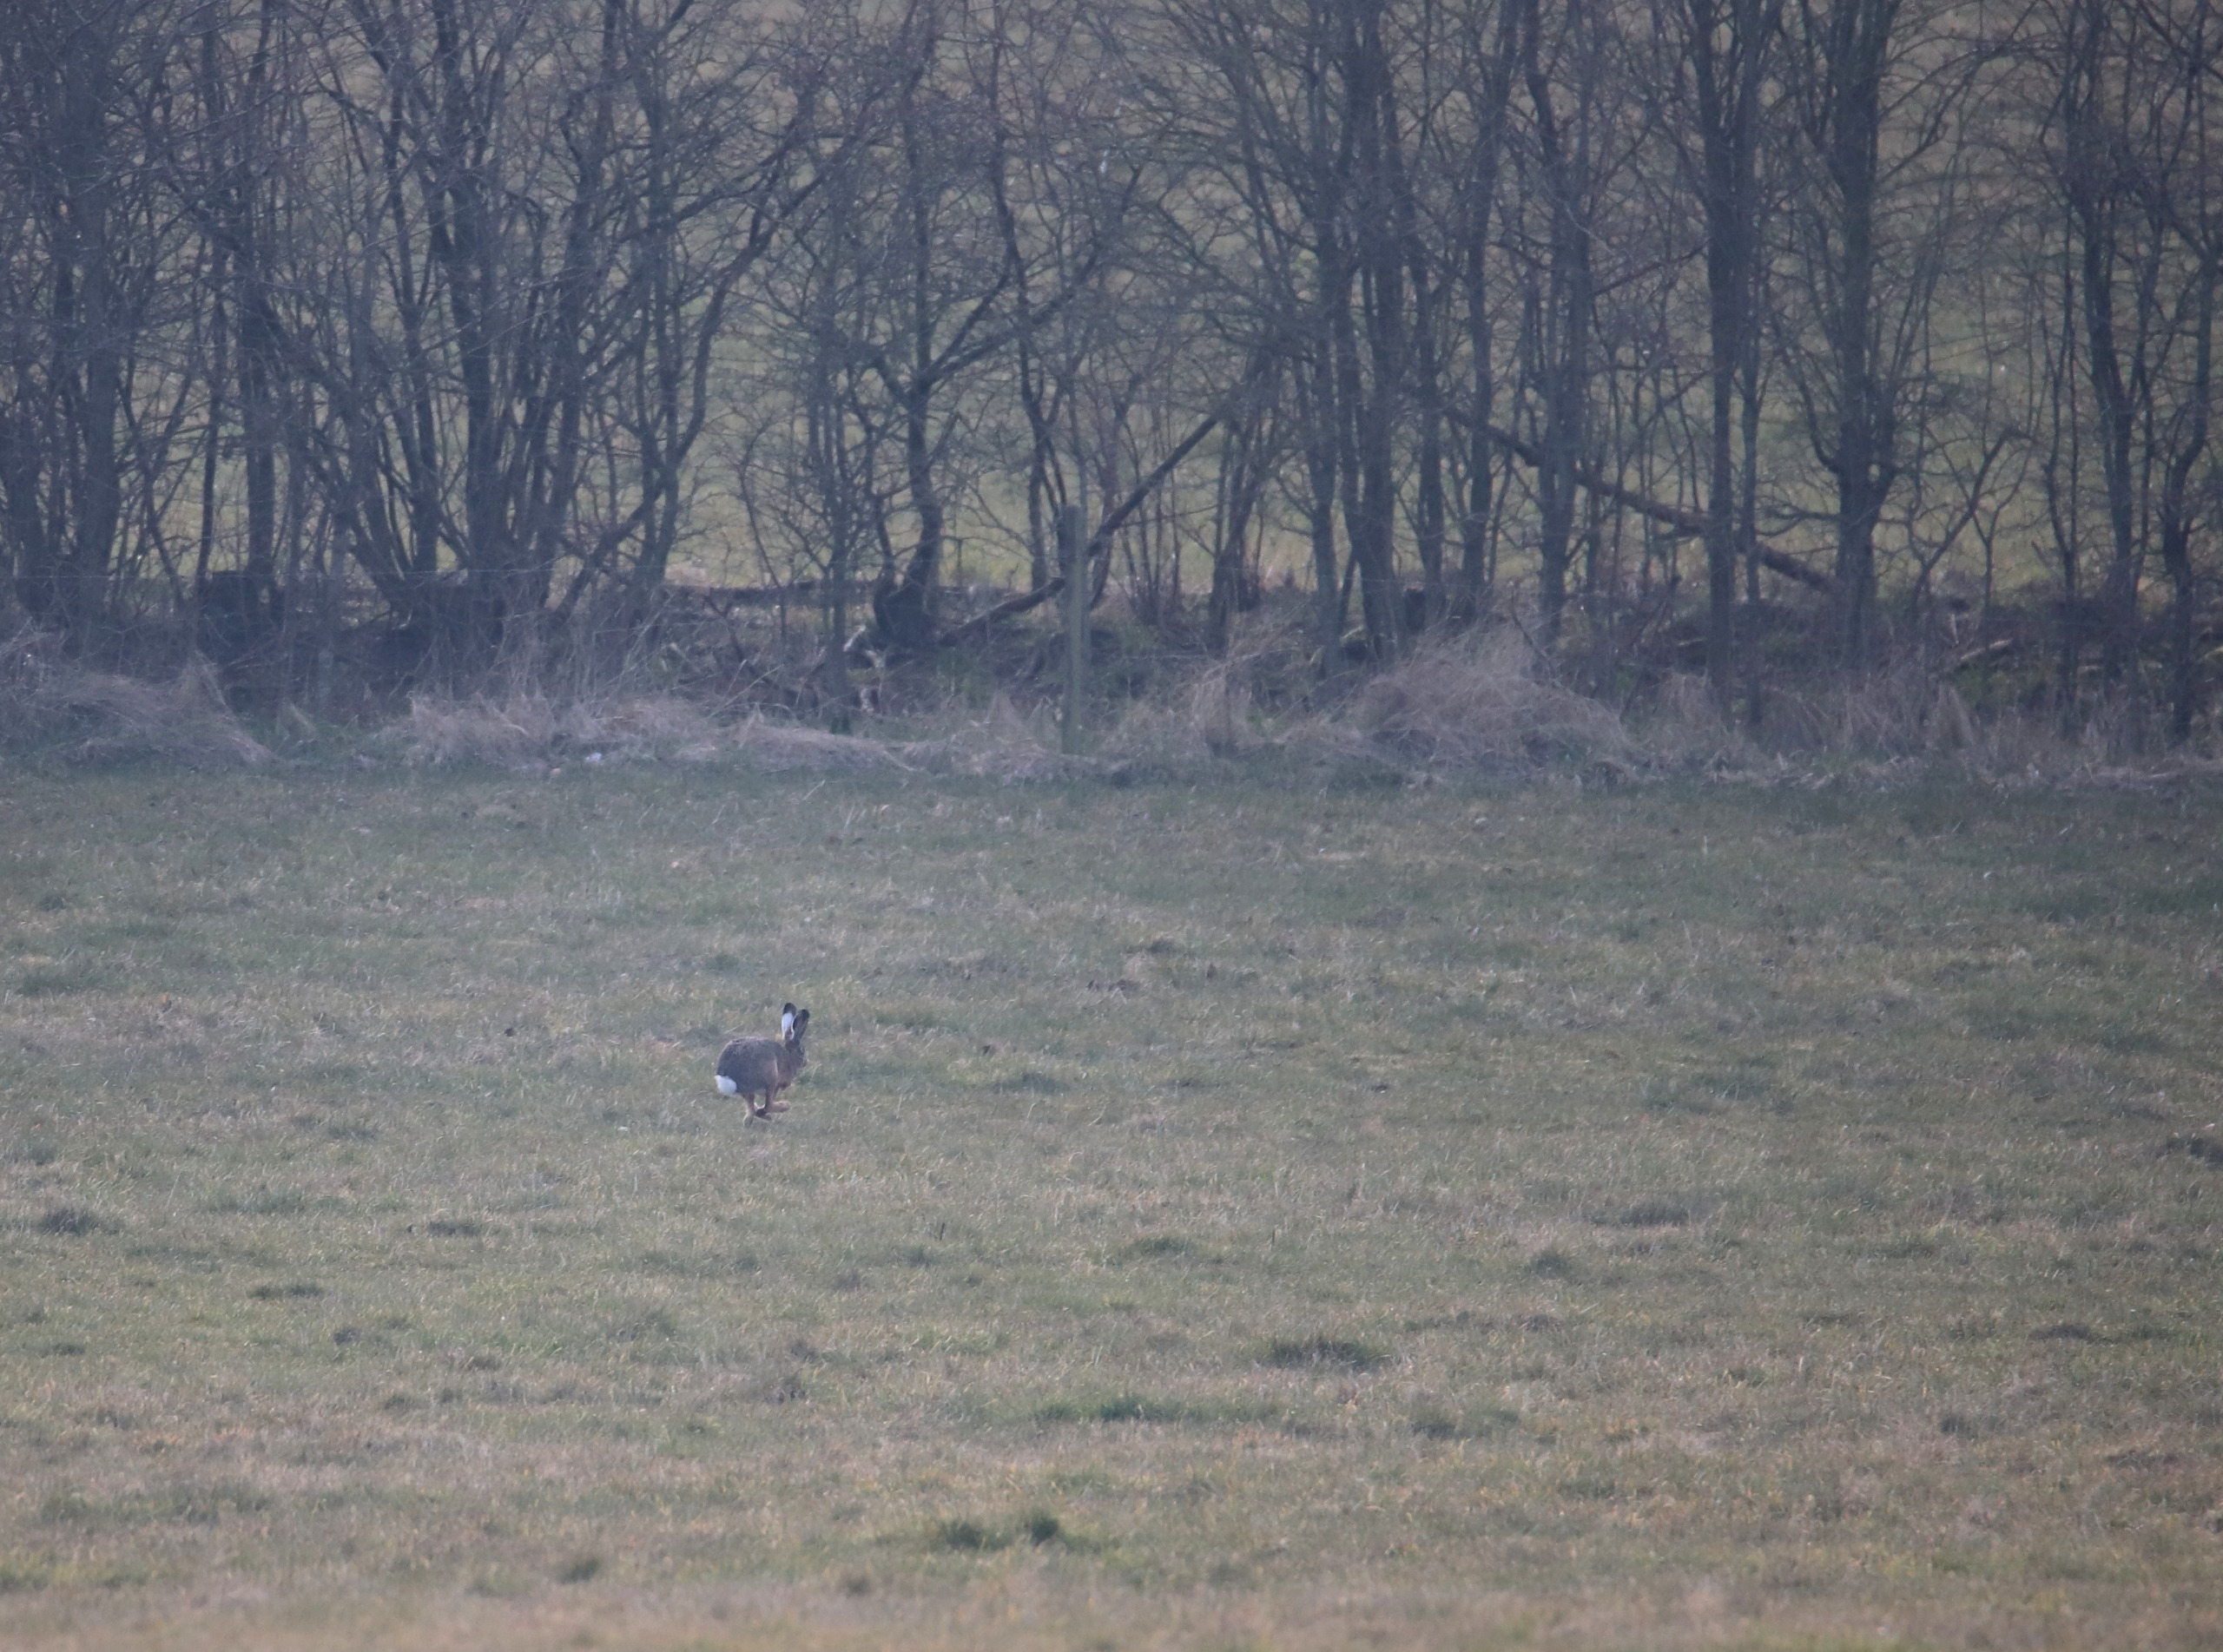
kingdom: Animalia
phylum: Chordata
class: Mammalia
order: Lagomorpha
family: Leporidae
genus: Lepus
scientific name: Lepus europaeus
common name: Hare
